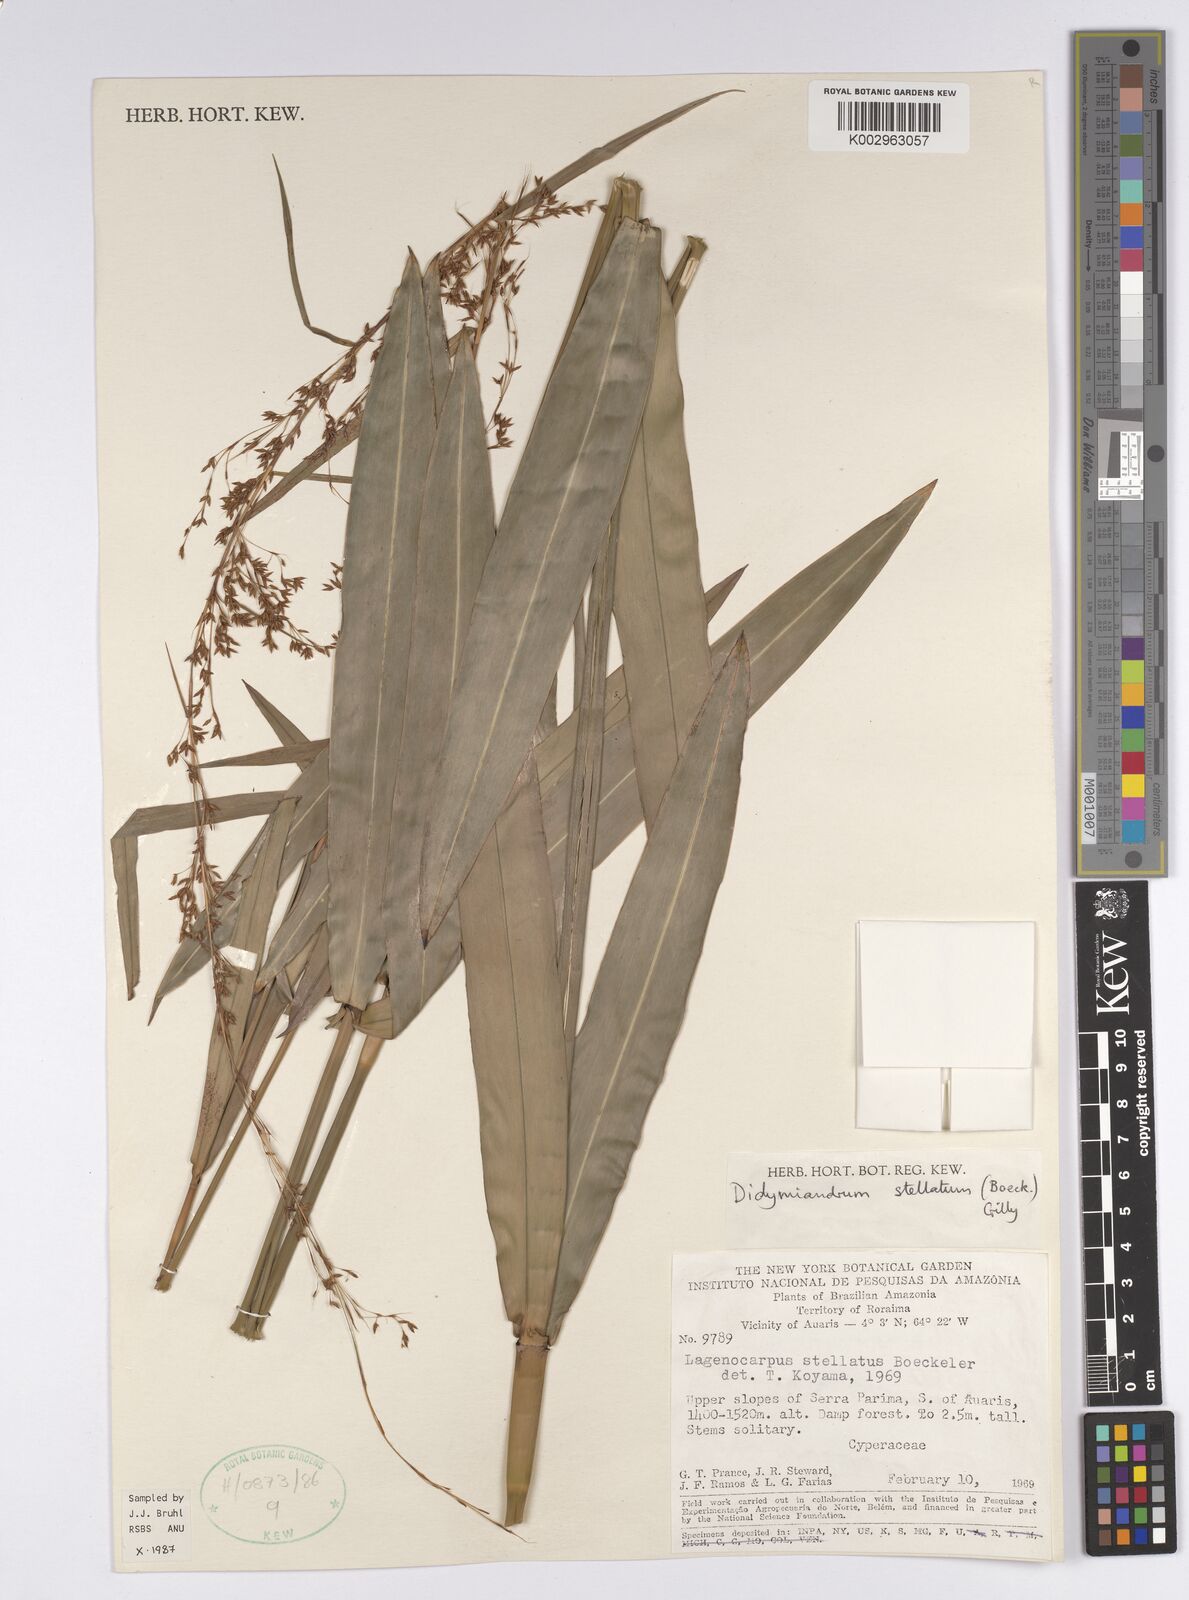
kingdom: Plantae
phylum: Tracheophyta
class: Liliopsida
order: Poales
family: Cyperaceae
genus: Didymiandrum
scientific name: Didymiandrum stellatum
